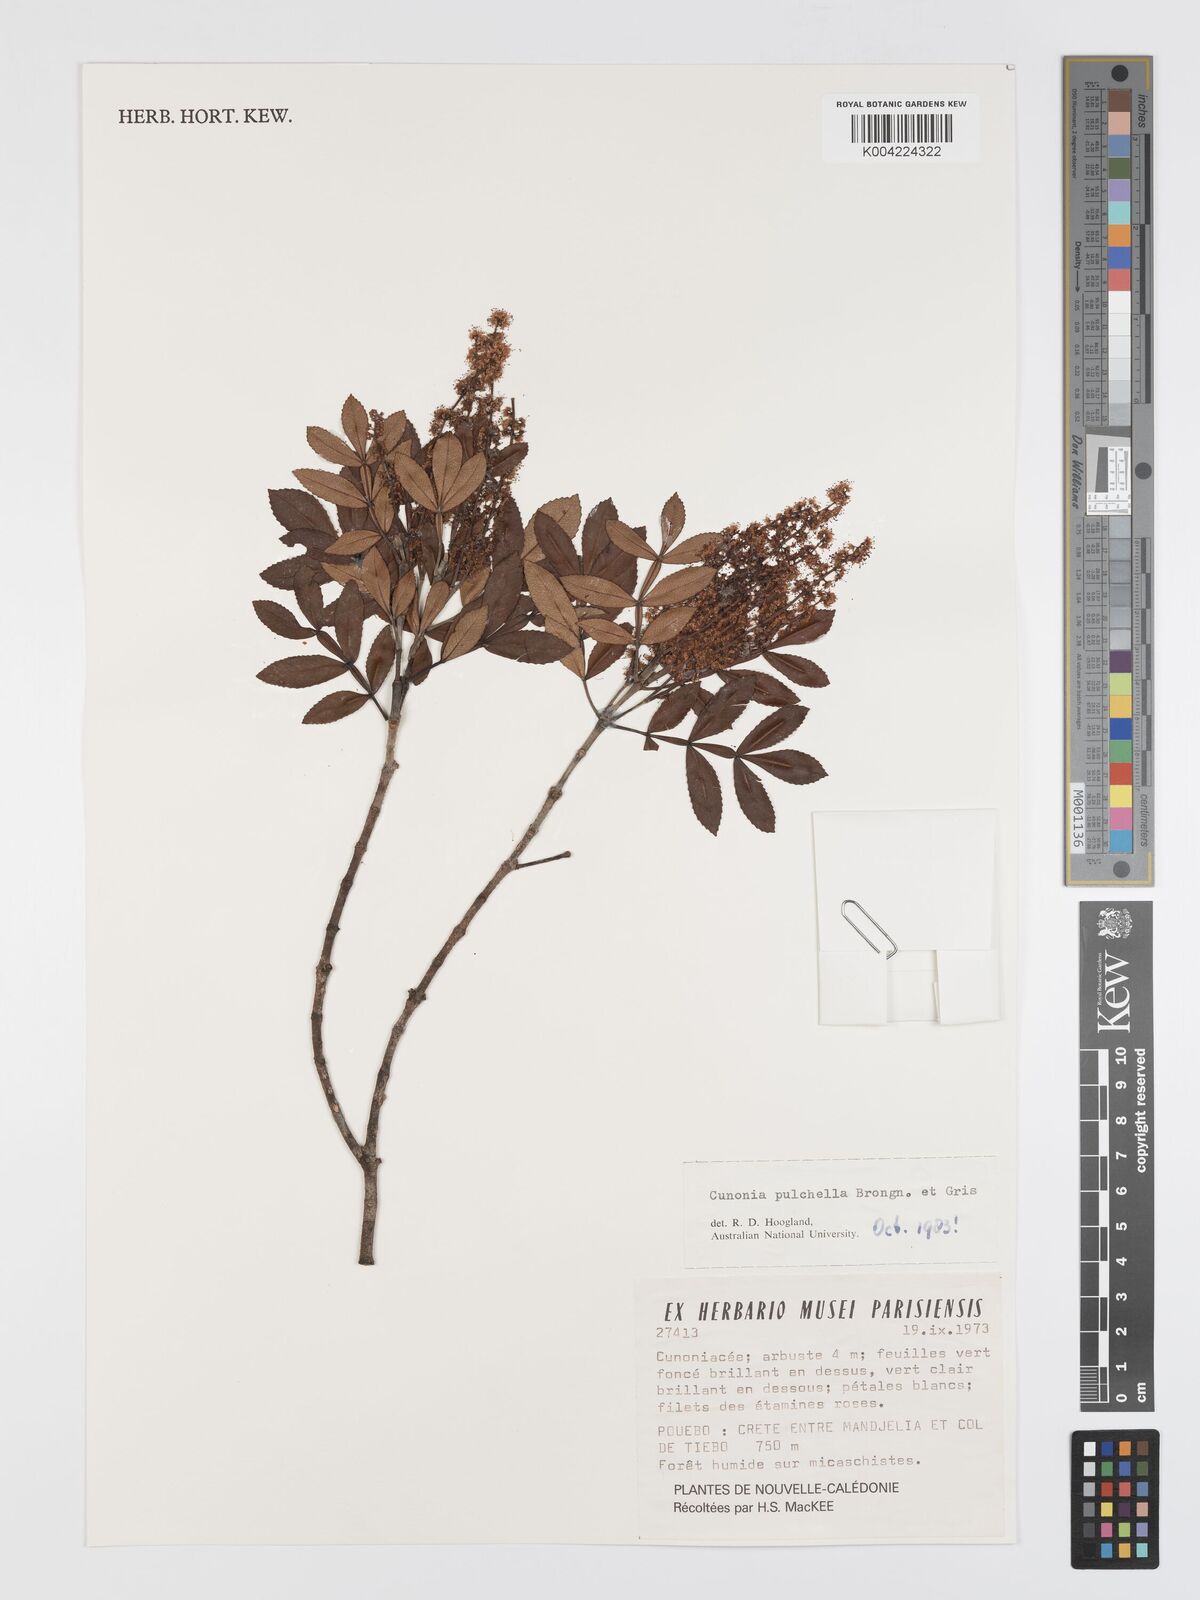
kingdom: Plantae
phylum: Tracheophyta
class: Magnoliopsida
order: Oxalidales
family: Cunoniaceae
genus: Cunonia
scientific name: Cunonia pulchella
